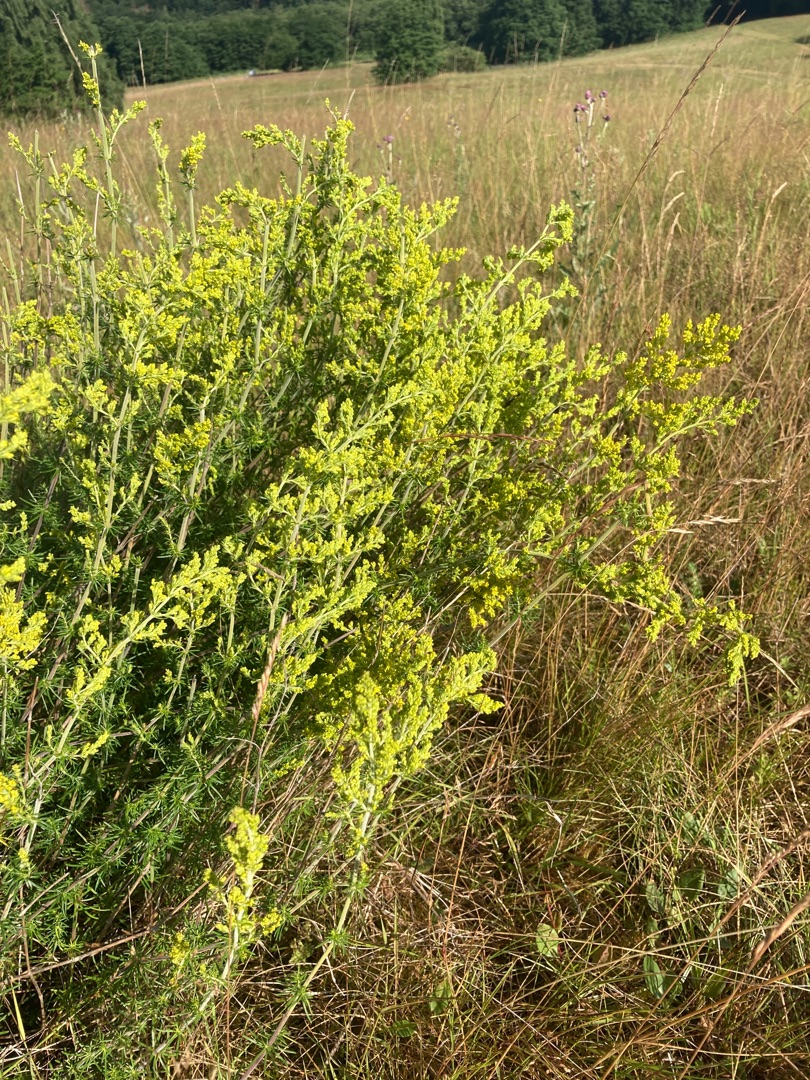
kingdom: Plantae
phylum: Tracheophyta
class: Magnoliopsida
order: Gentianales
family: Rubiaceae
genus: Galium
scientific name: Galium verum
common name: Gul snerre
